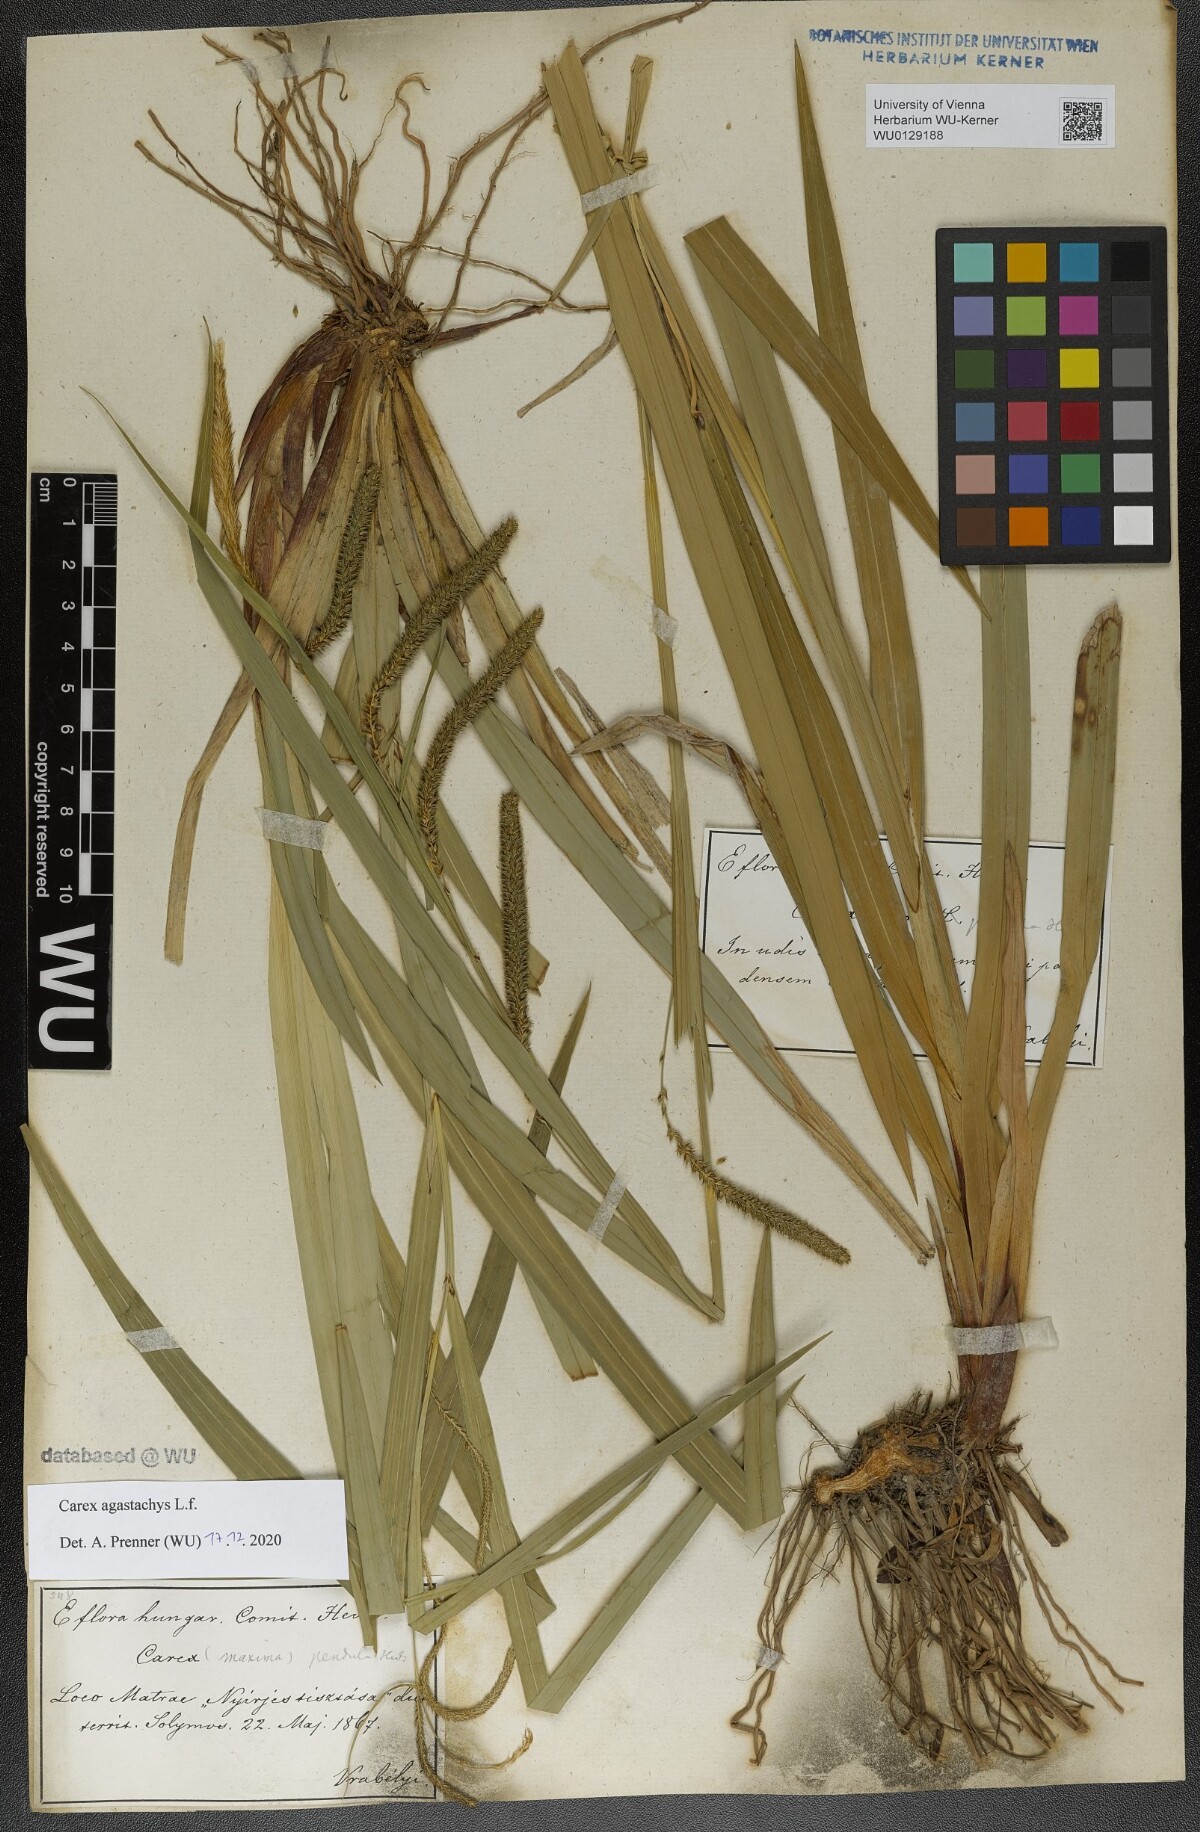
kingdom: Plantae
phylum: Tracheophyta
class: Liliopsida
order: Poales
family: Cyperaceae
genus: Carex
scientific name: Carex agastachys
